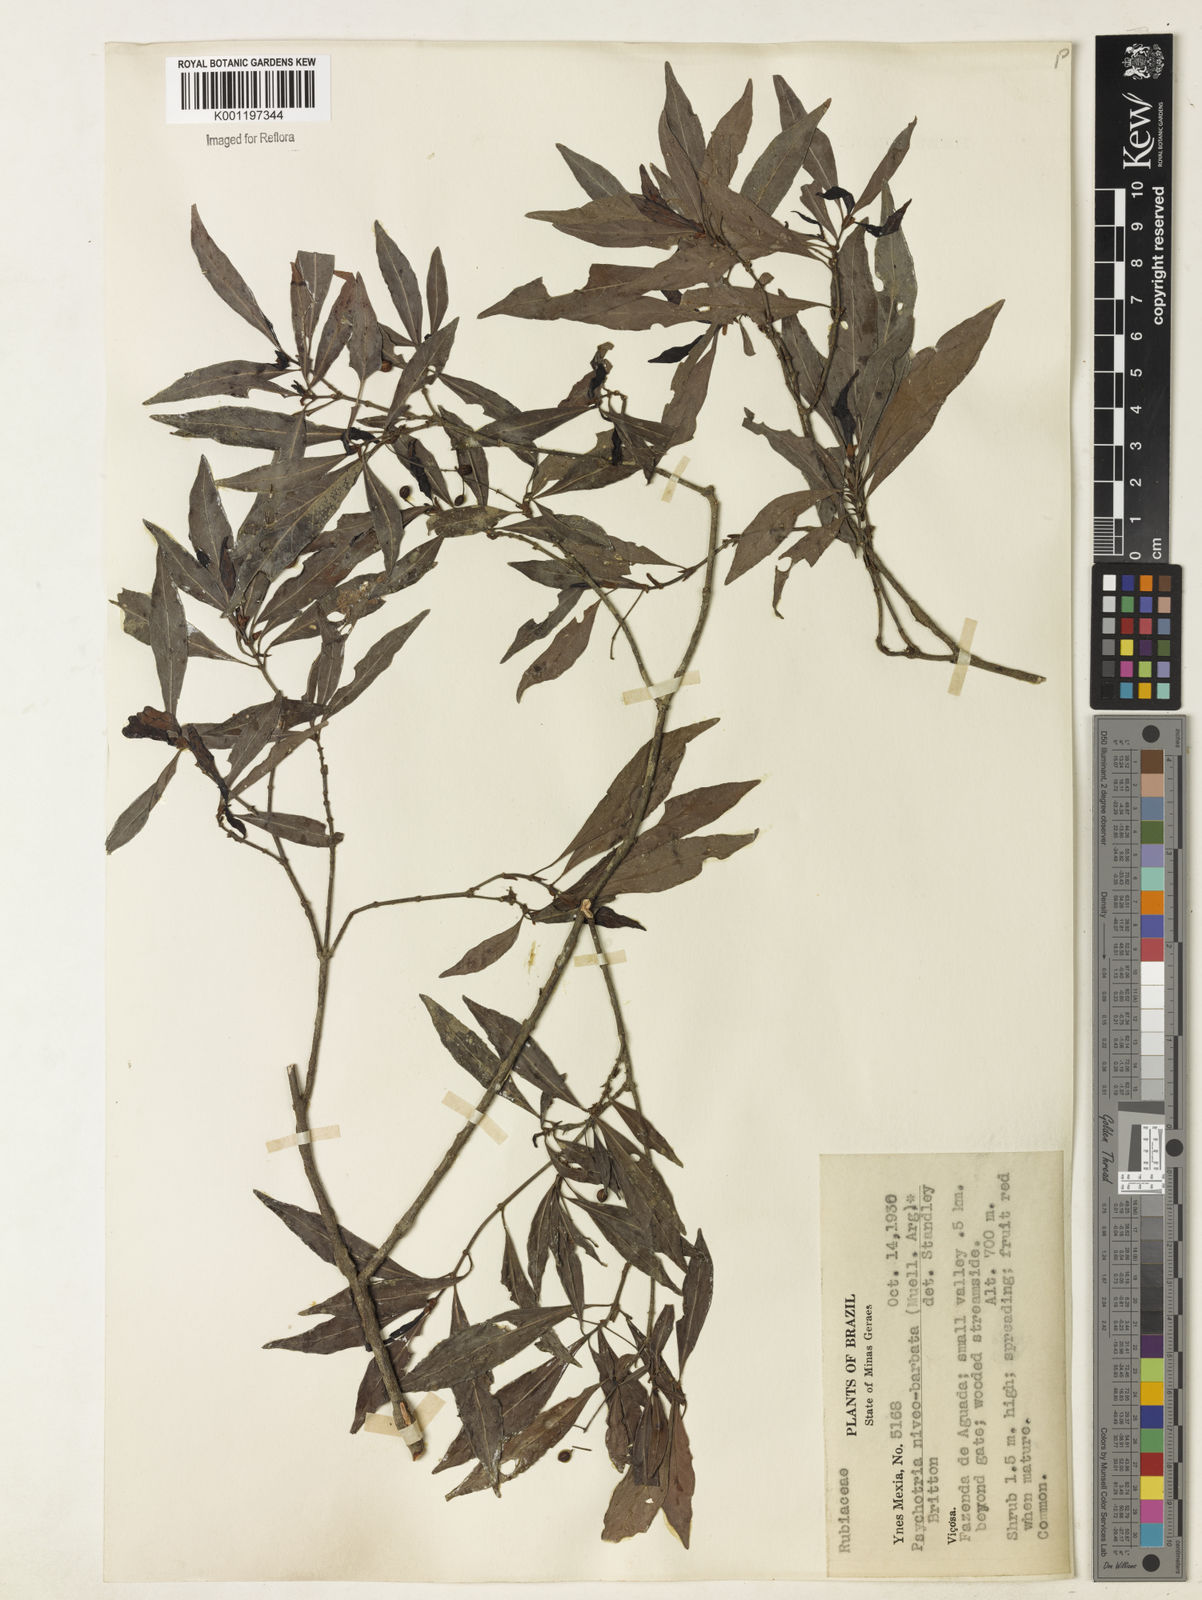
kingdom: Plantae
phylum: Tracheophyta
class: Magnoliopsida
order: Gentianales
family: Rubiaceae
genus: Psychotria
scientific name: Psychotria
